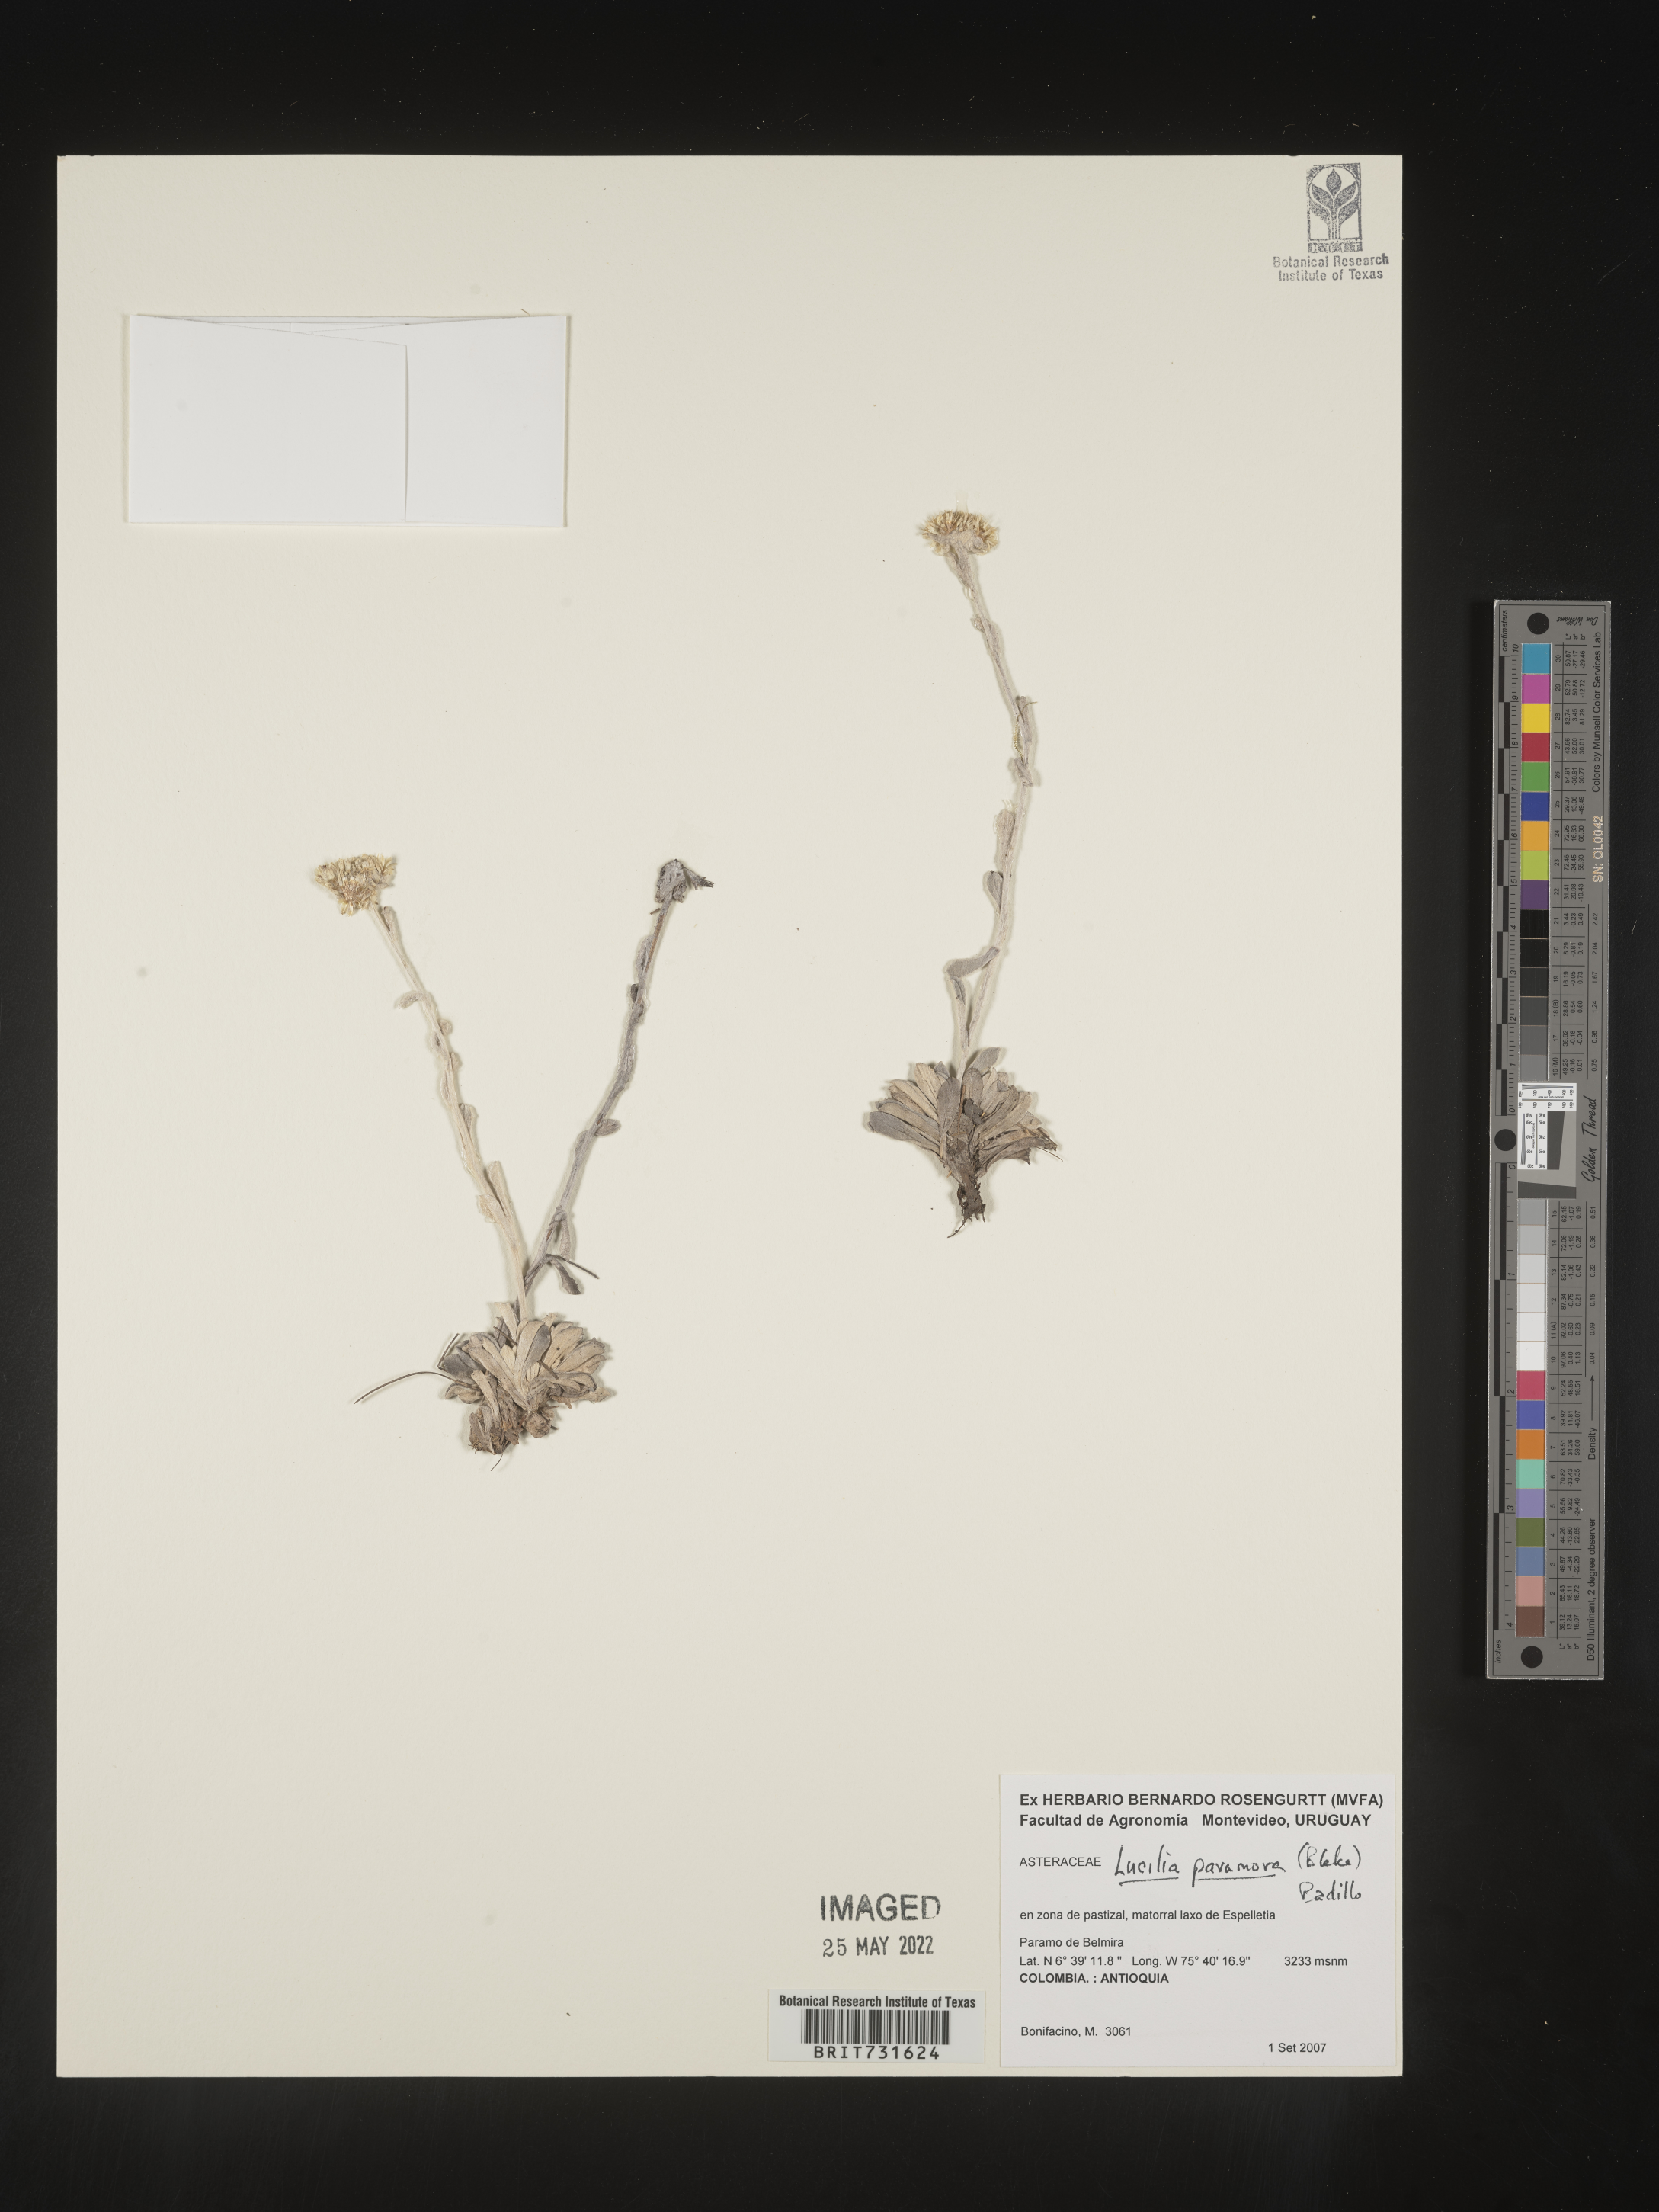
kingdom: Plantae
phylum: Tracheophyta
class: Magnoliopsida
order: Asterales
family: Asteraceae
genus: Lucilia
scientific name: Lucilia
